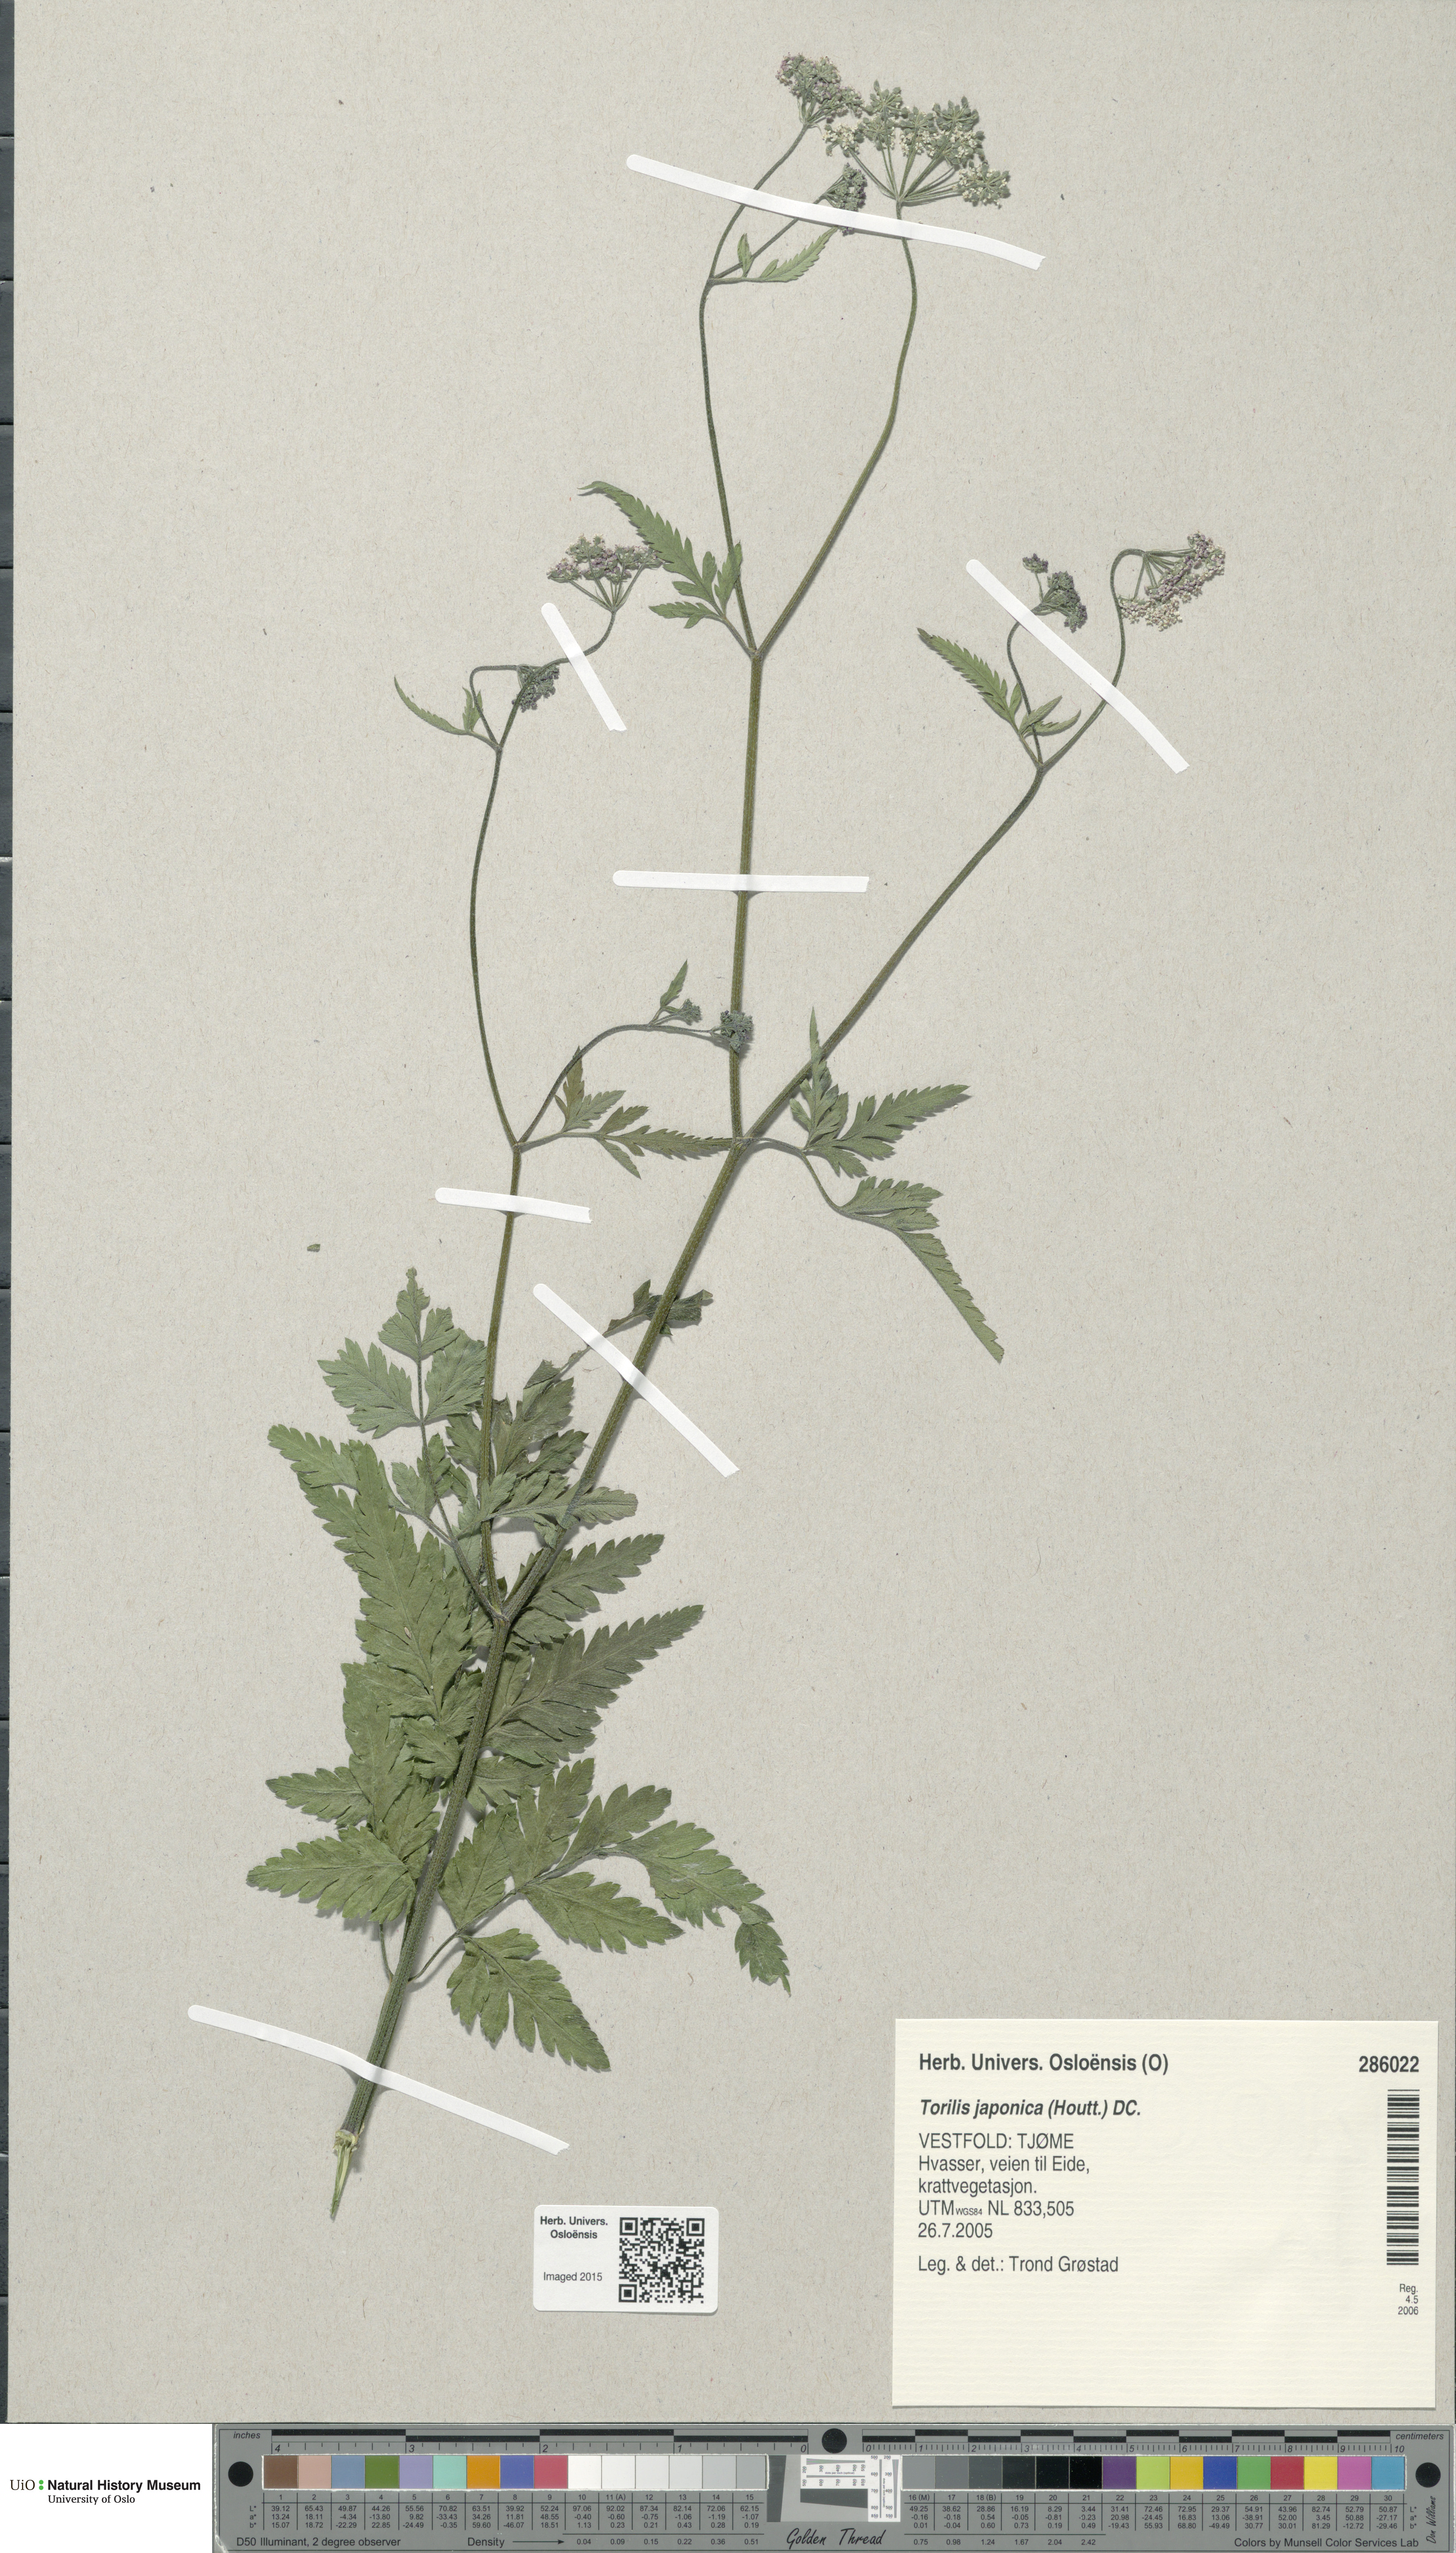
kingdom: Plantae
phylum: Tracheophyta
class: Magnoliopsida
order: Apiales
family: Apiaceae
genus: Torilis
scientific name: Torilis japonica
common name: Upright hedge-parsley
